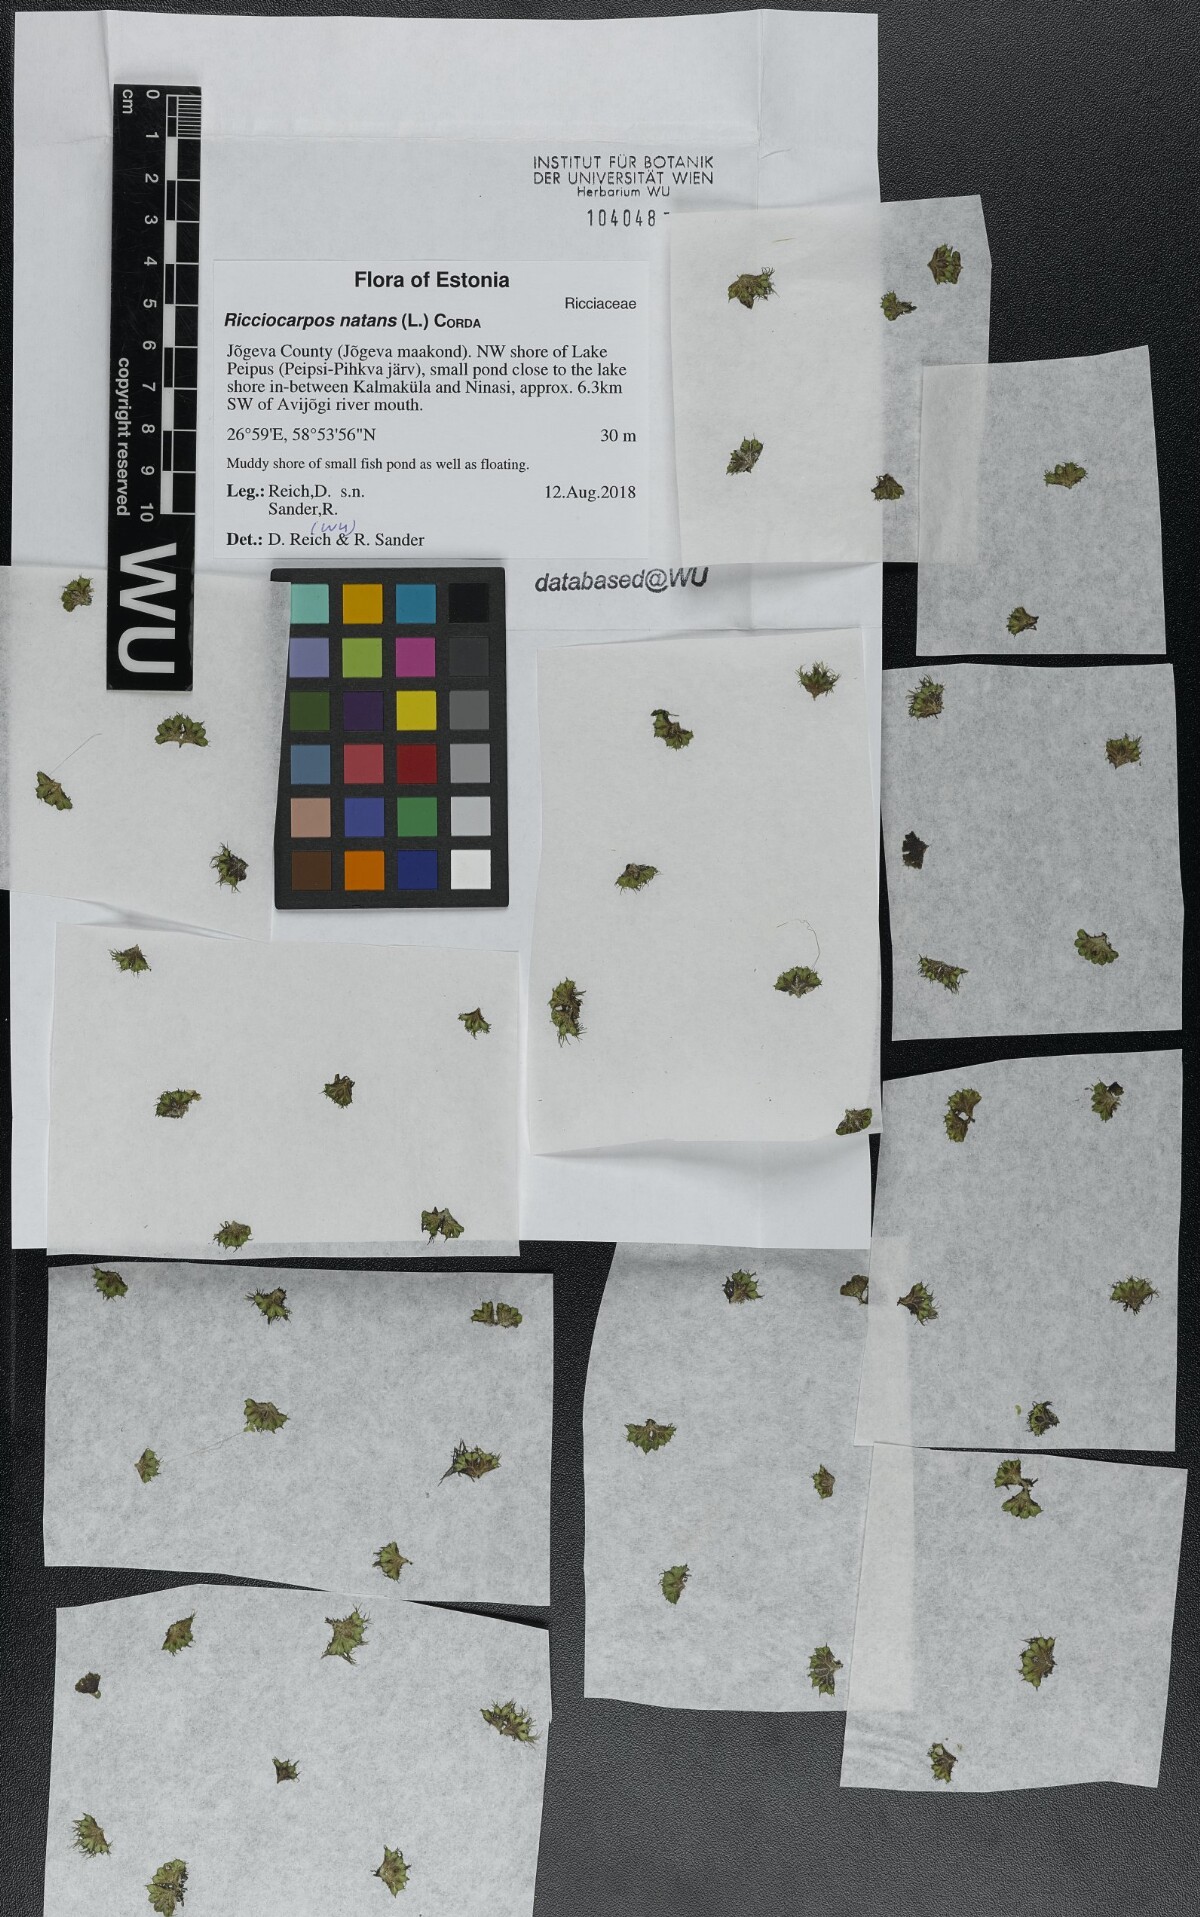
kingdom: Plantae
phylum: Marchantiophyta
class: Marchantiopsida
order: Marchantiales
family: Ricciaceae
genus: Ricciocarpos
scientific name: Ricciocarpos natans
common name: Purple-fringed liverwort
